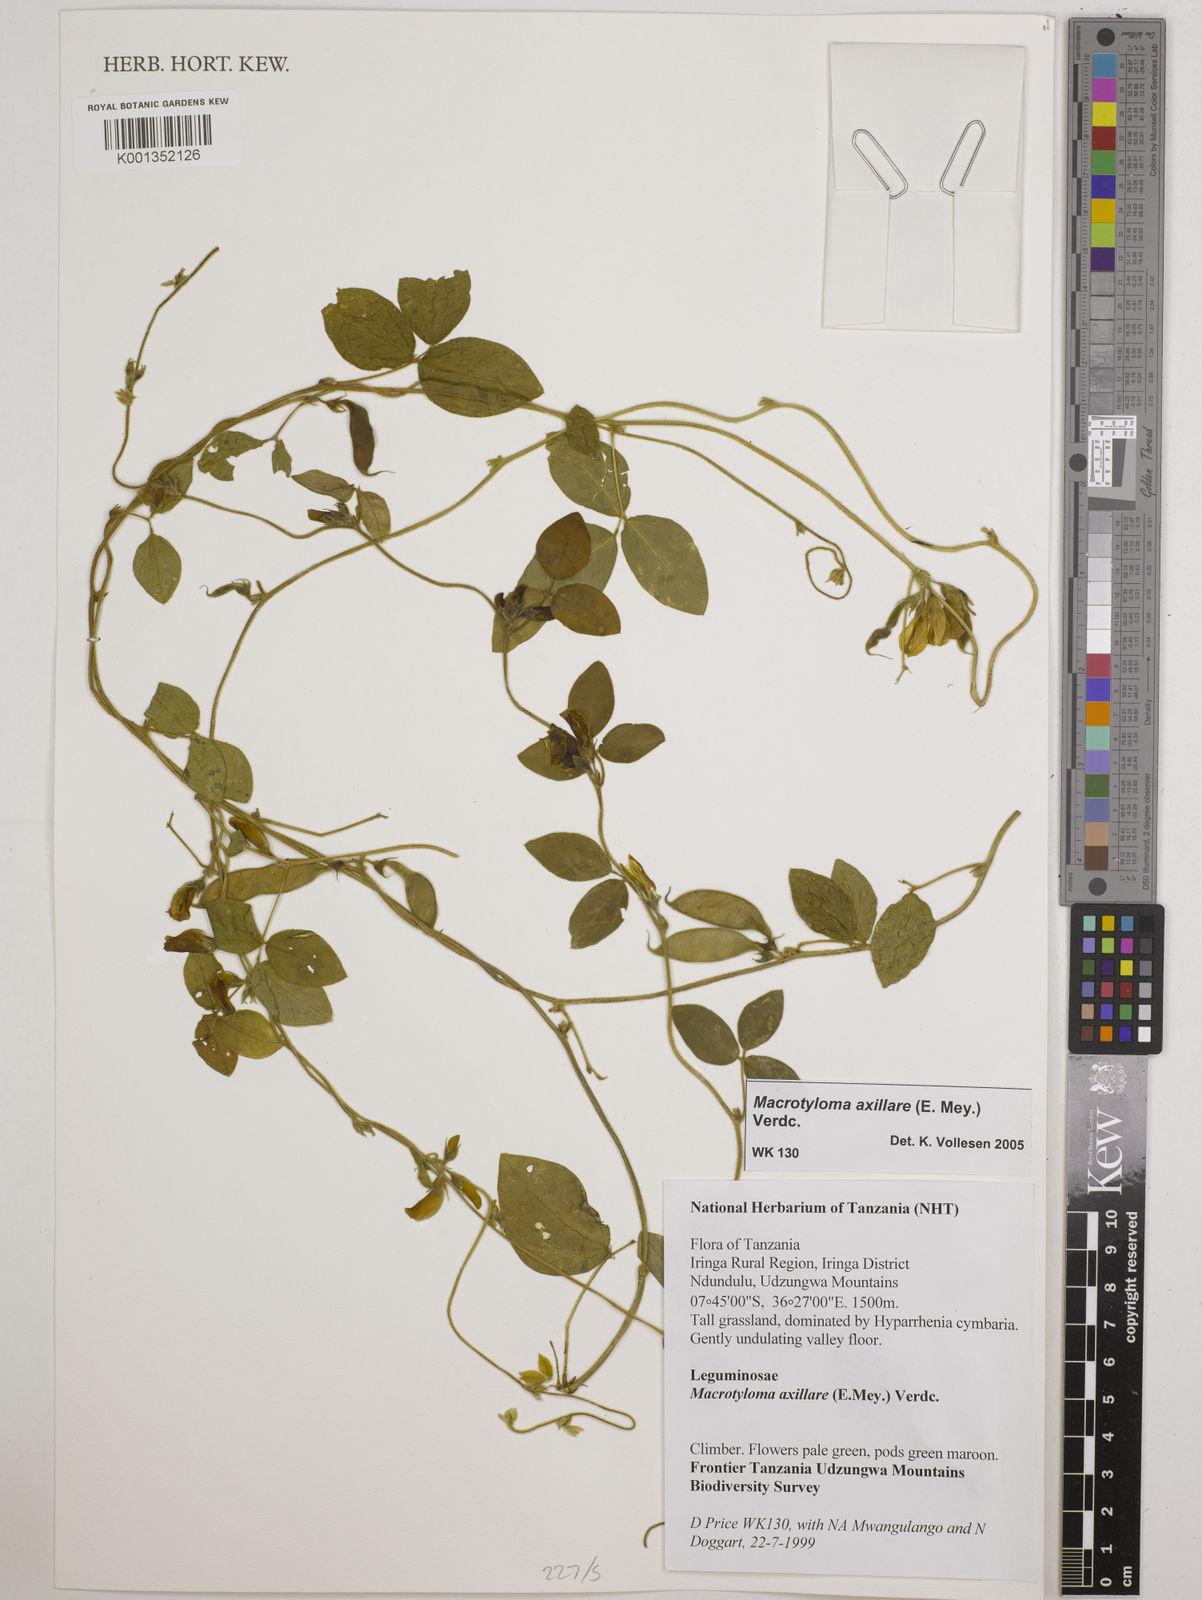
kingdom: Plantae
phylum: Tracheophyta
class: Magnoliopsida
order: Fabales
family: Fabaceae
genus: Macrotyloma
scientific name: Macrotyloma axillare
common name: Perennial horsegram
